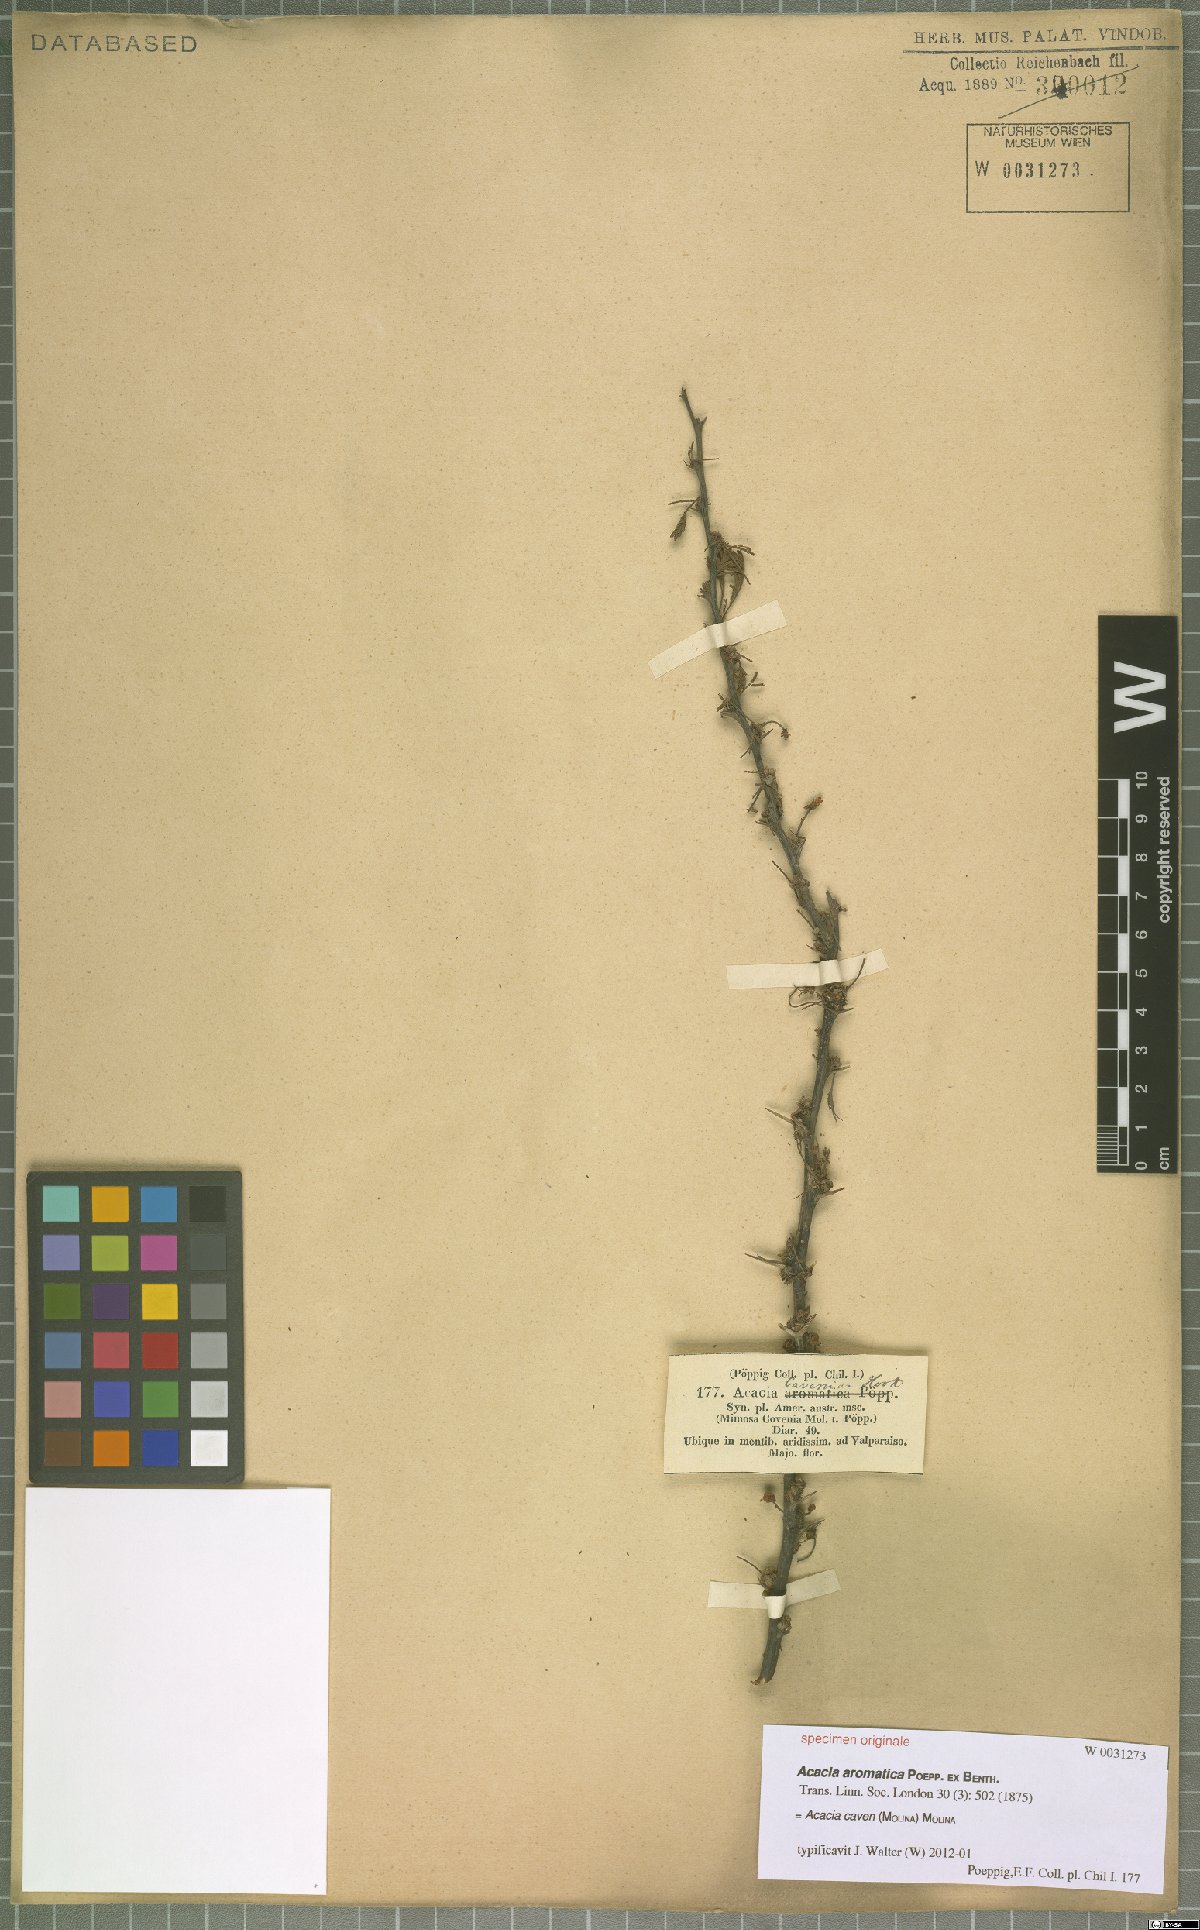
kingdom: Plantae
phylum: Tracheophyta
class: Magnoliopsida
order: Fabales
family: Fabaceae
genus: Vachellia
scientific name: Vachellia caven
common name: Roman cassie
